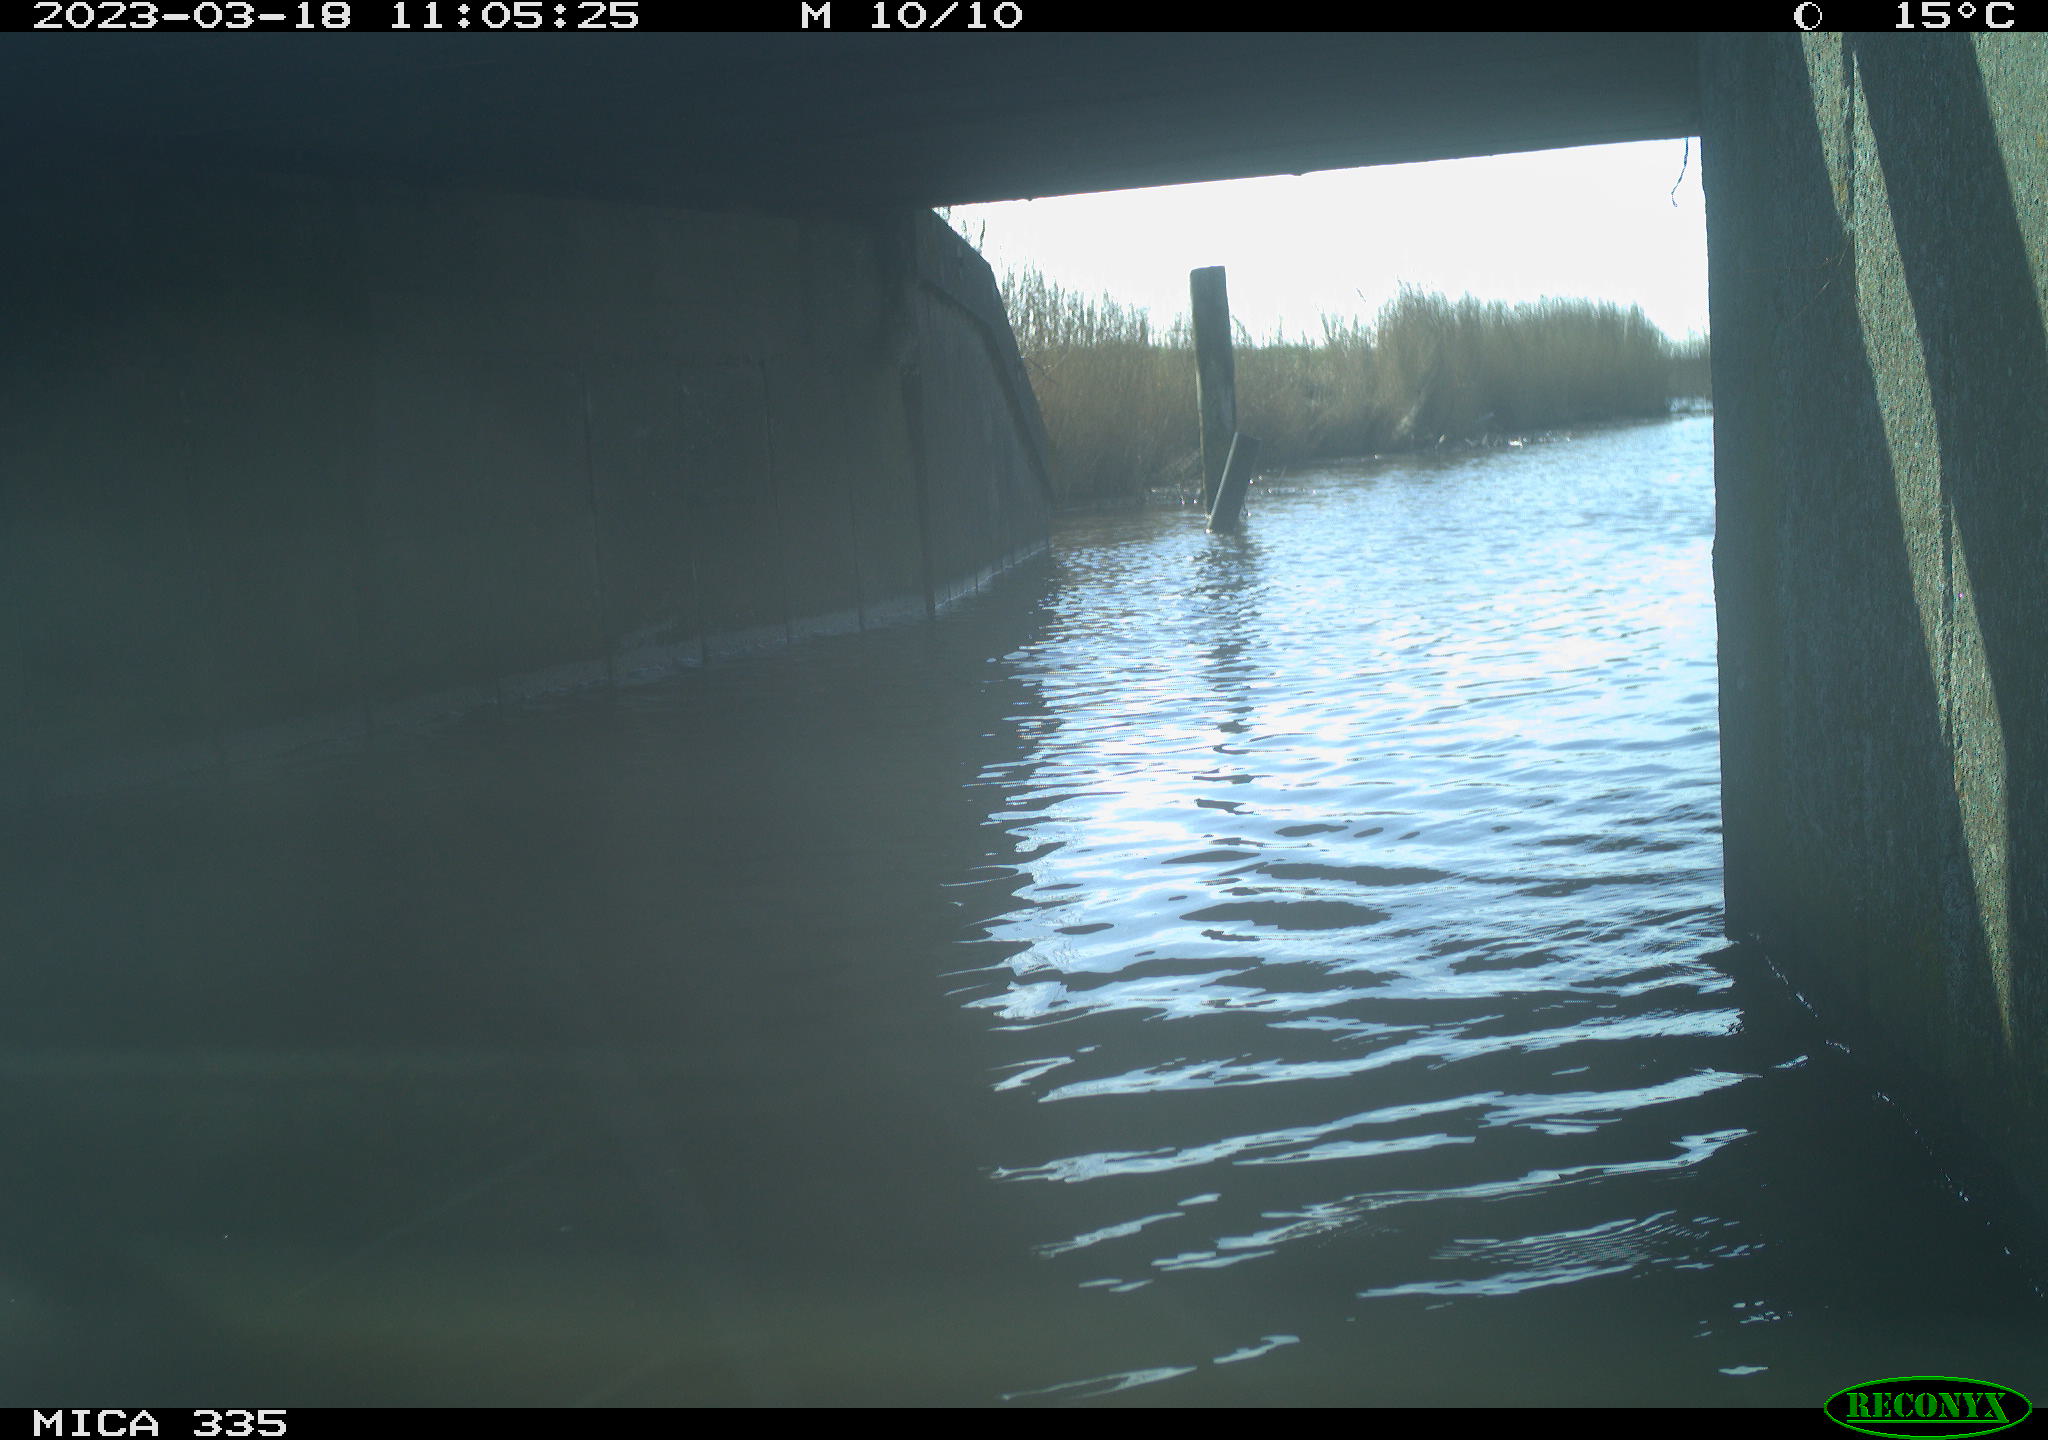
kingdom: Animalia
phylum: Chordata
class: Aves
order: Anseriformes
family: Anatidae
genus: Anas
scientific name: Anas
